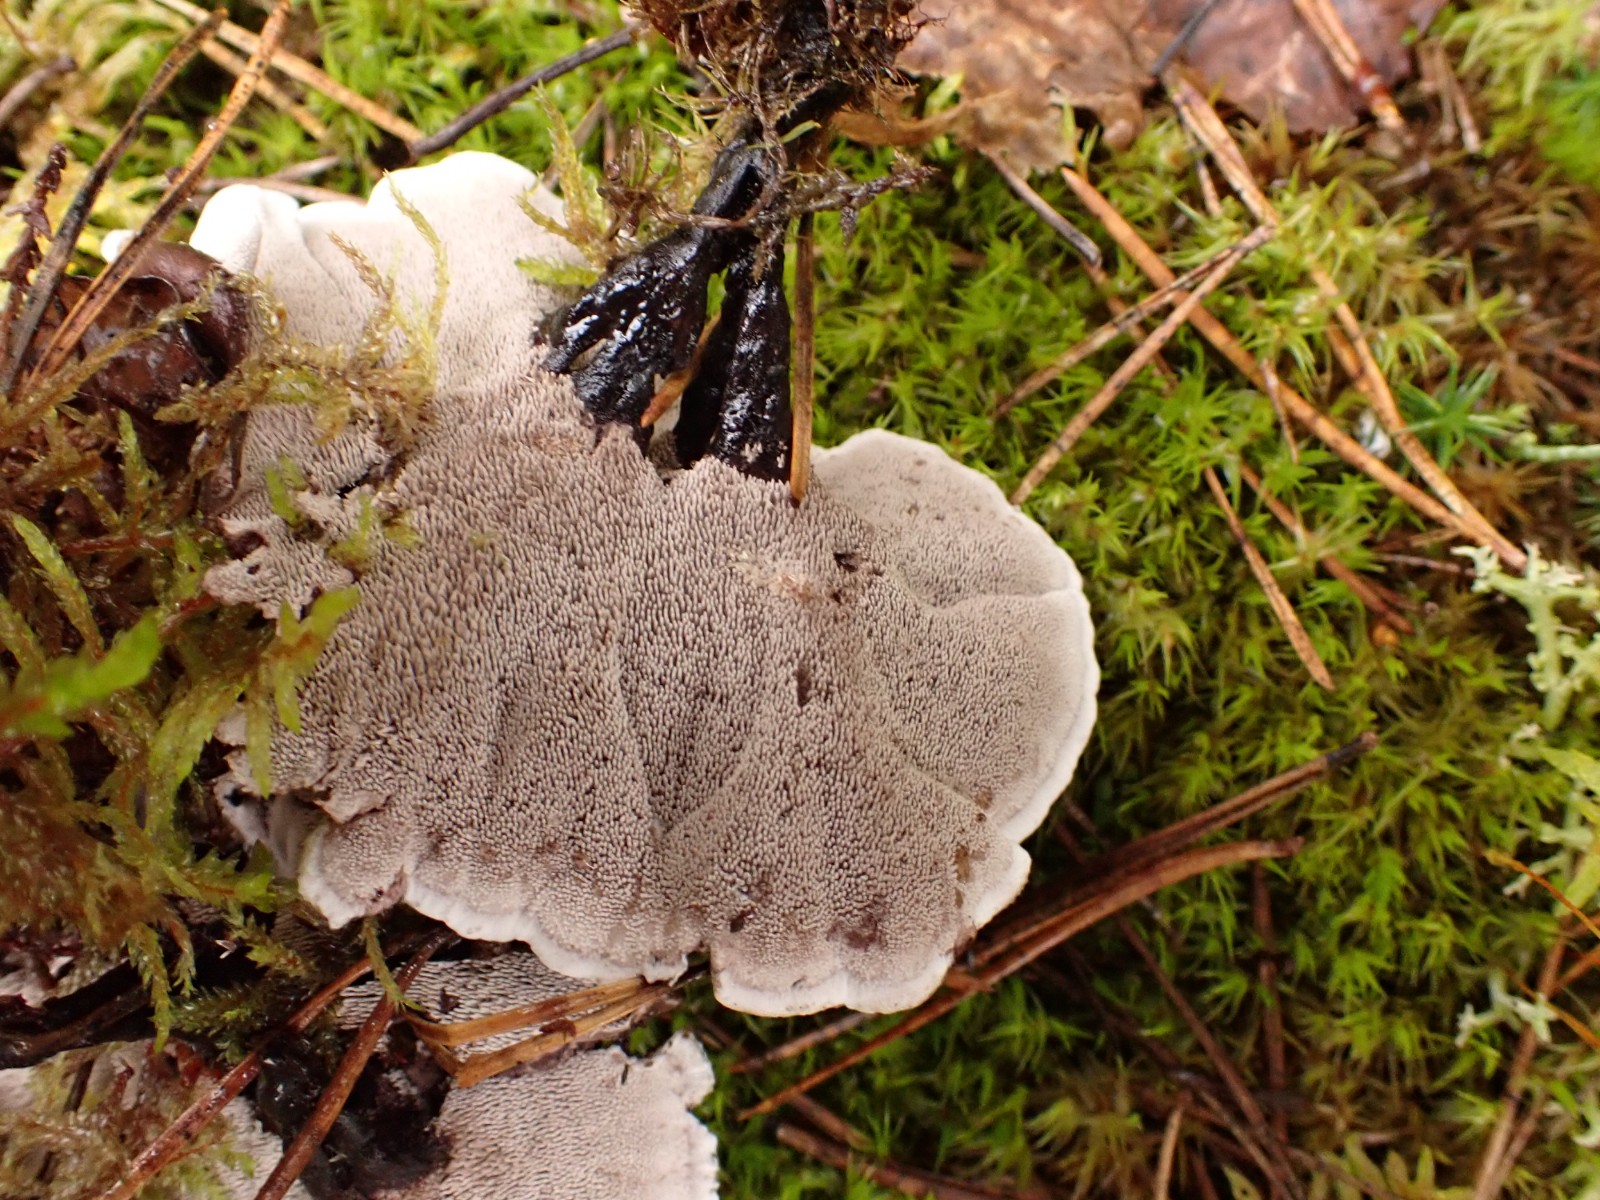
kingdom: Fungi
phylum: Basidiomycota
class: Agaricomycetes
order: Thelephorales
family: Thelephoraceae
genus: Phellodon
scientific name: Phellodon tomentosus
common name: vellugtende duftpigsvamp
